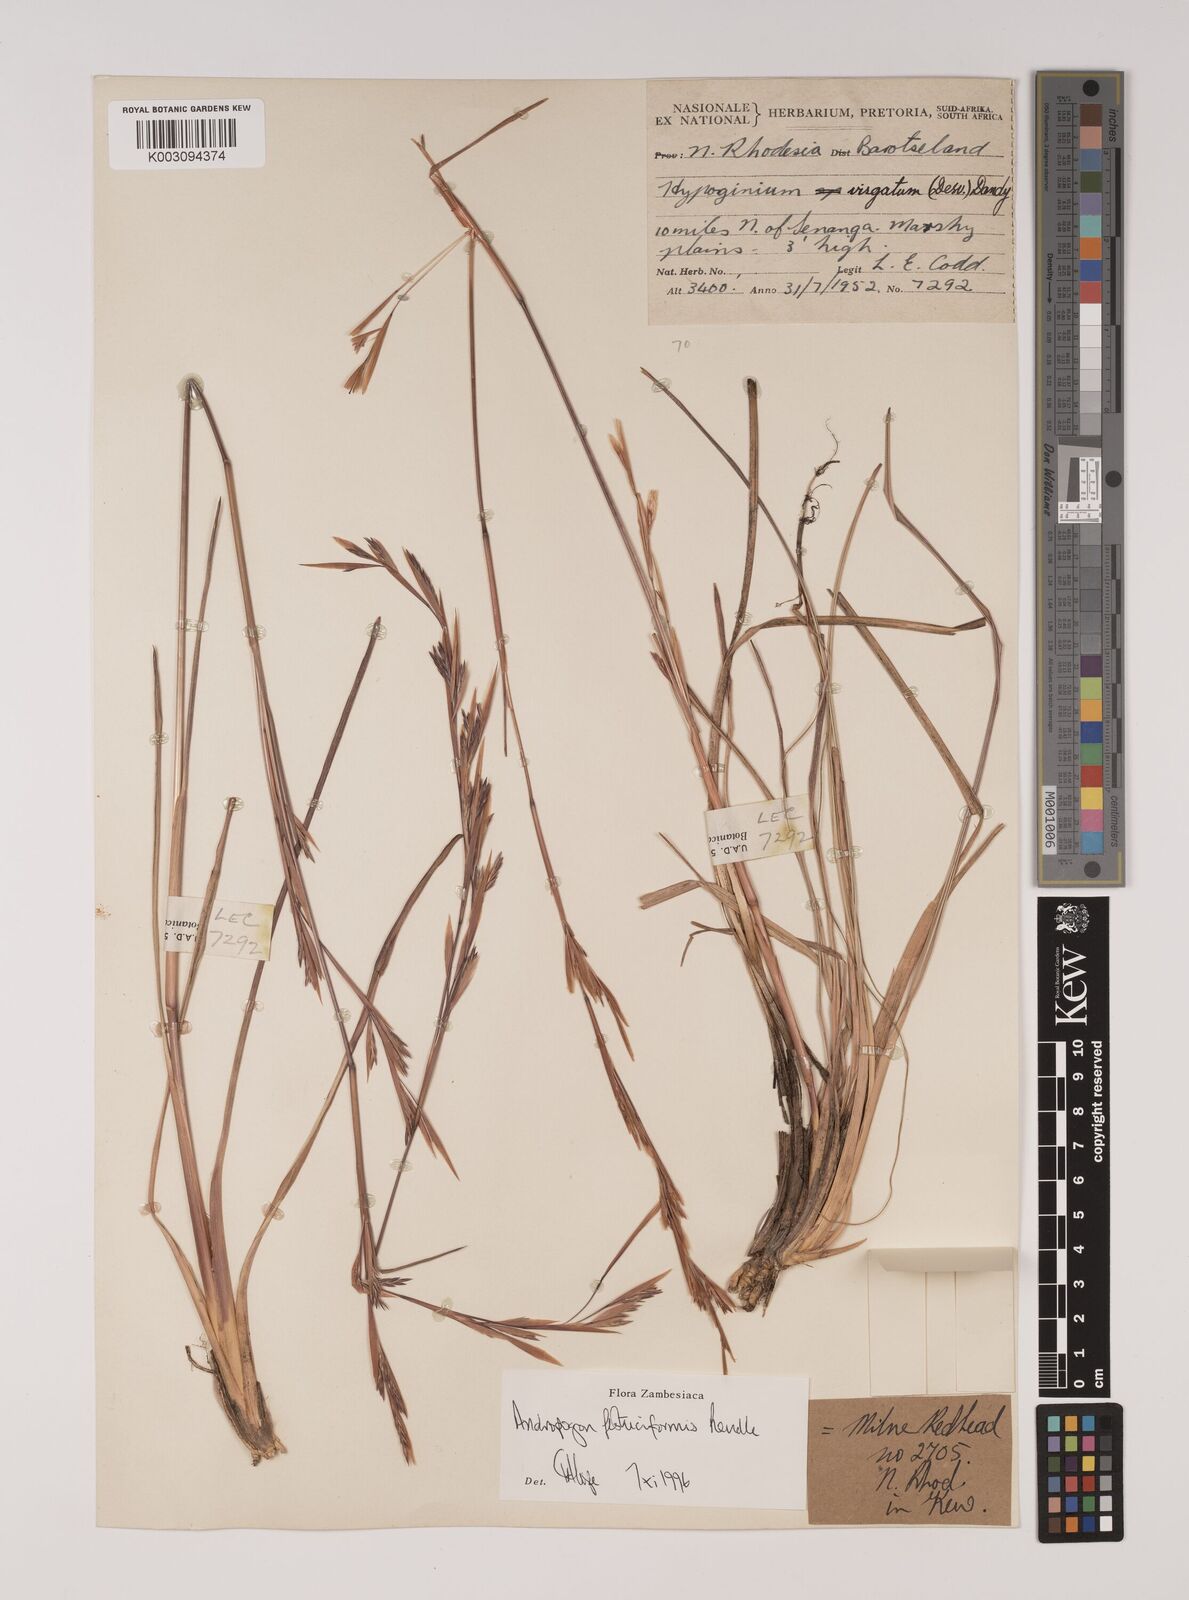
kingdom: Plantae
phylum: Tracheophyta
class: Liliopsida
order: Poales
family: Poaceae
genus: Andropogon
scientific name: Andropogon festuciformis
